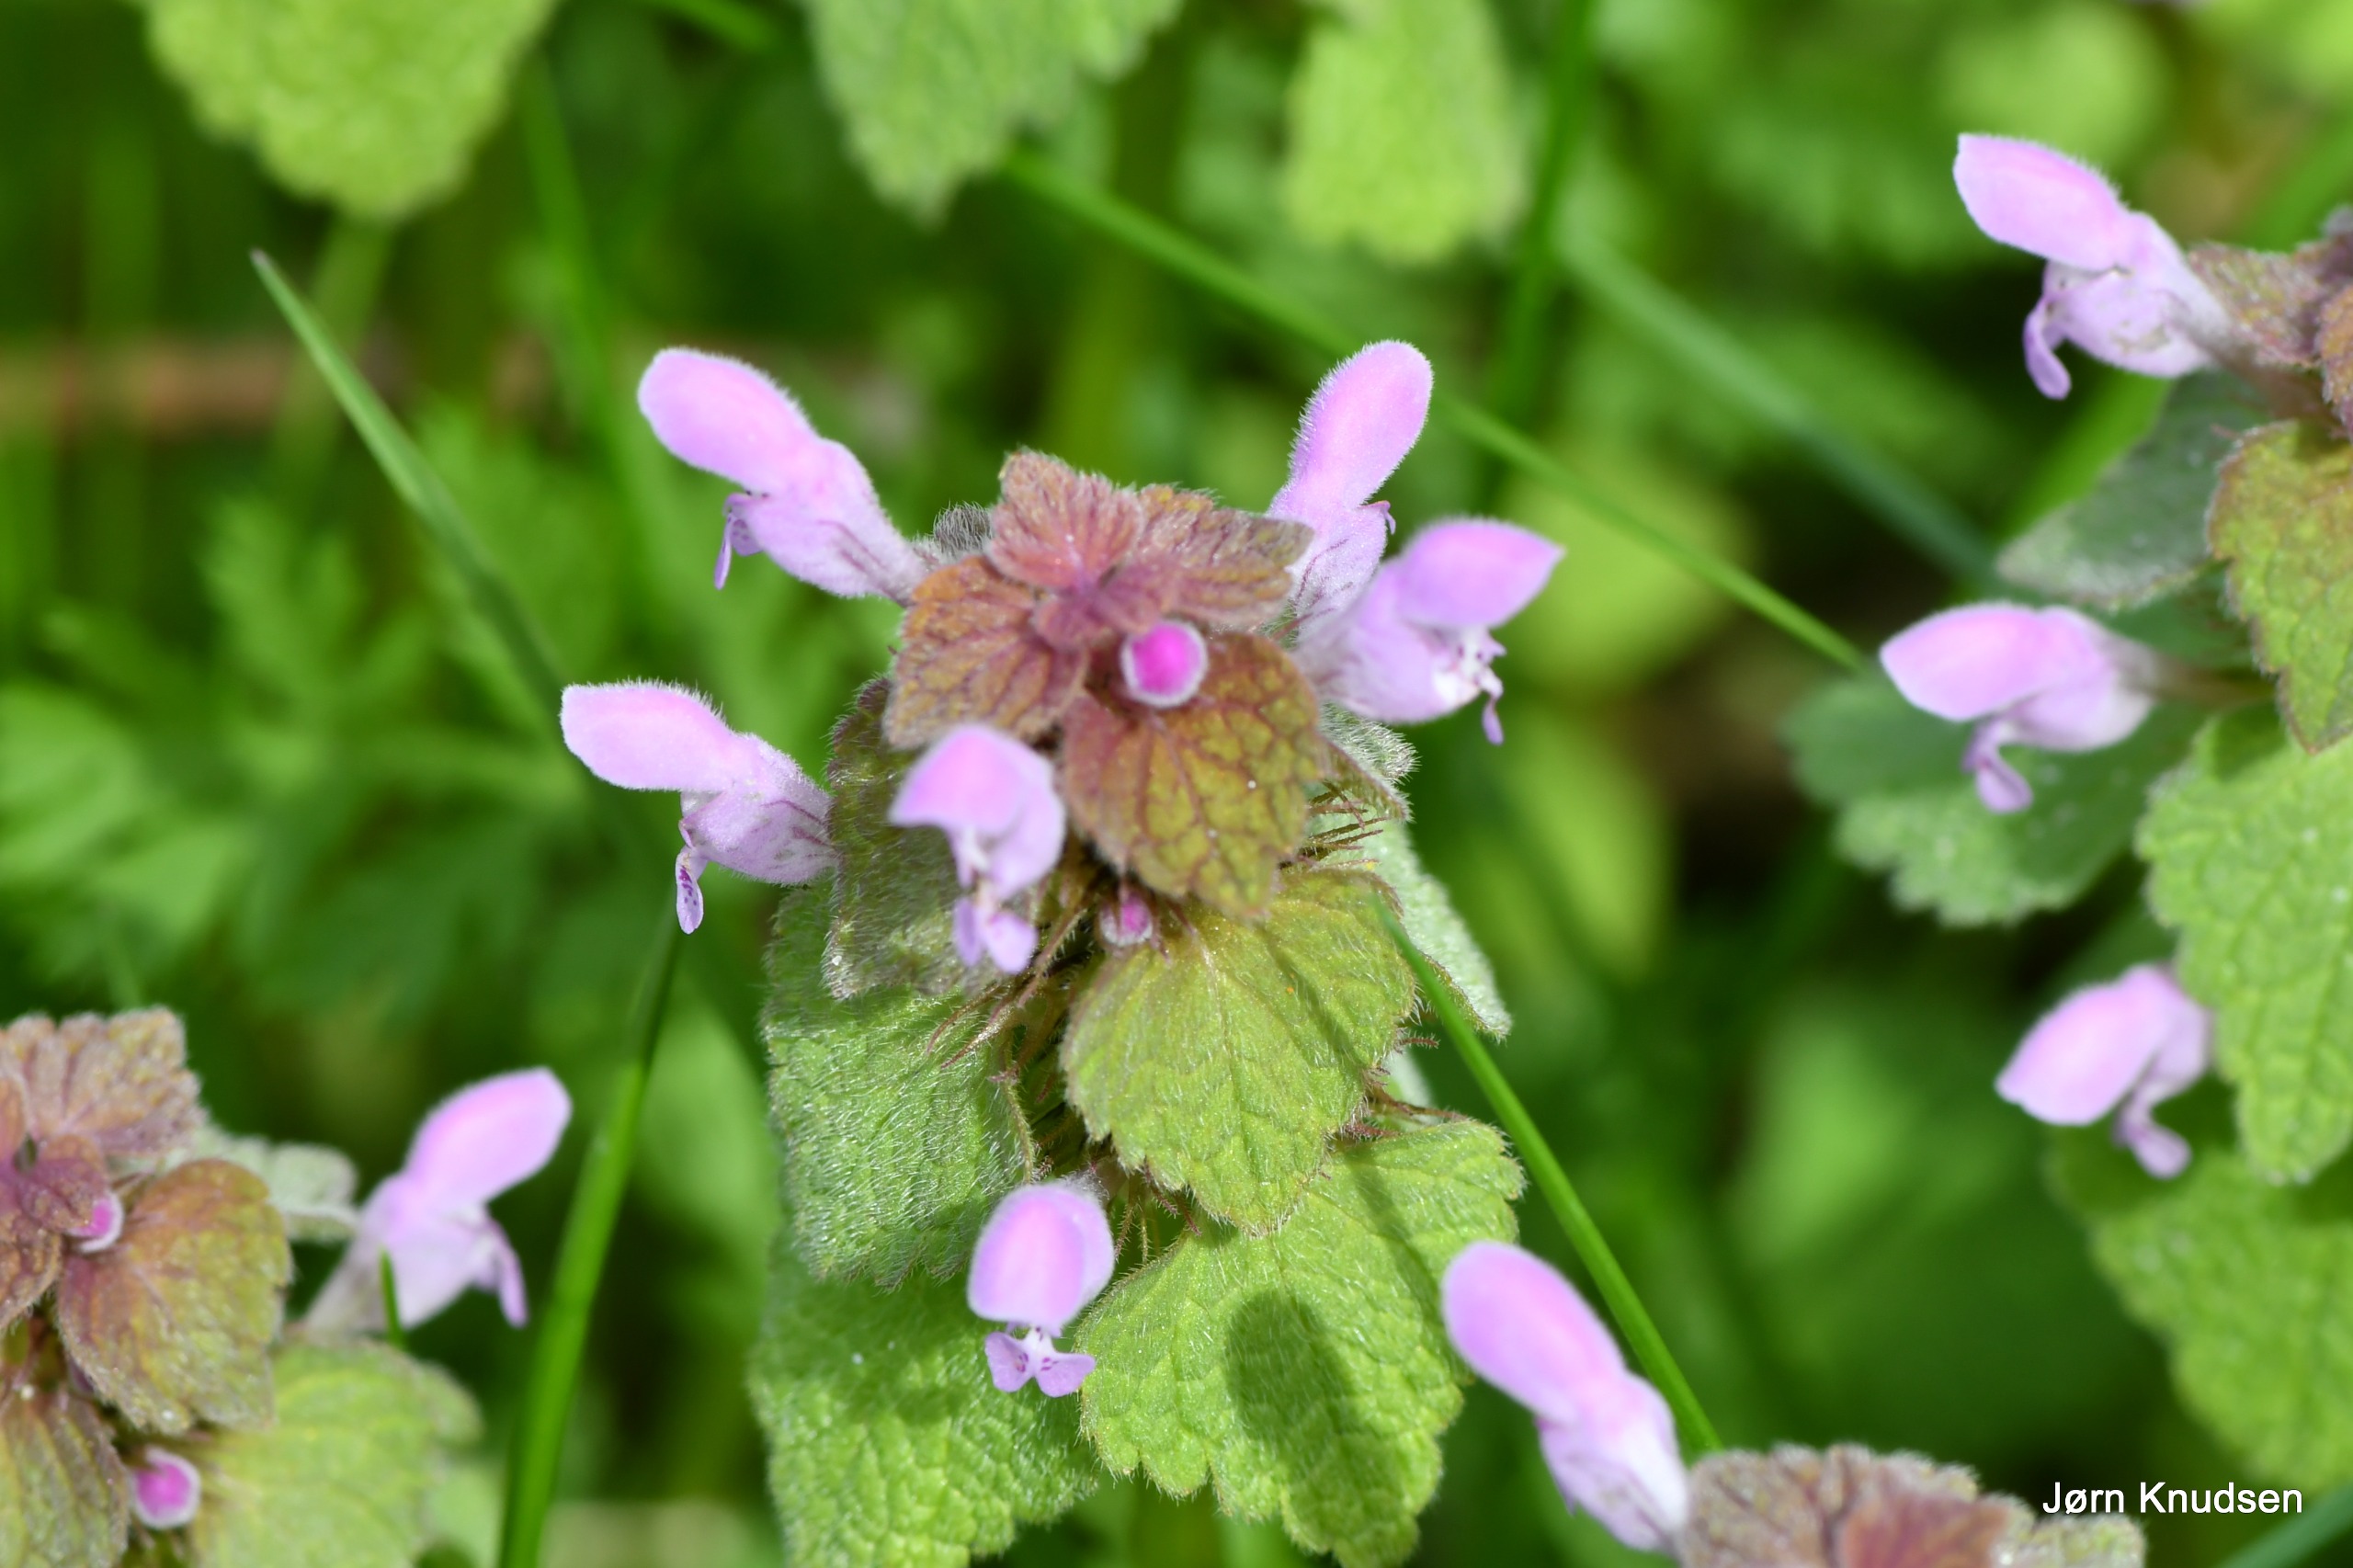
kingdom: Plantae
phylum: Tracheophyta
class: Magnoliopsida
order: Lamiales
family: Lamiaceae
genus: Lamium
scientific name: Lamium purpureum
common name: Rød tvetand
